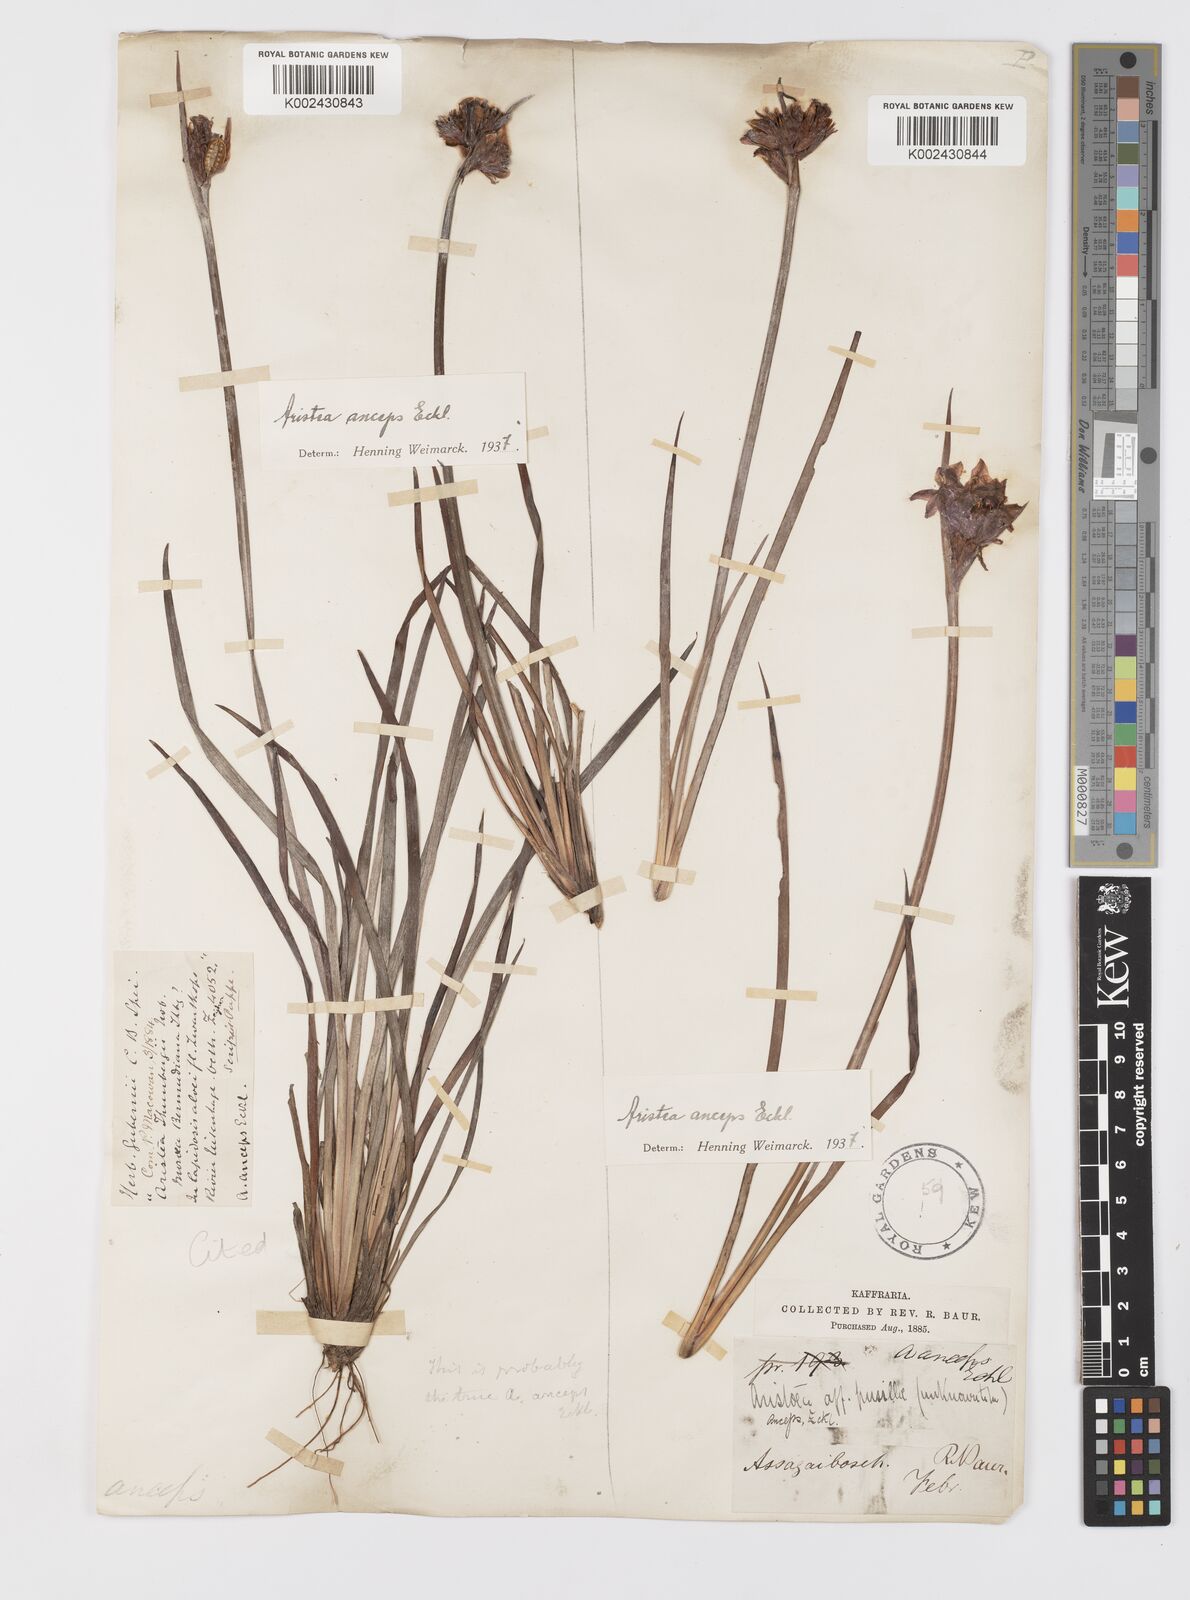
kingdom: Plantae
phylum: Tracheophyta
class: Liliopsida
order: Asparagales
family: Iridaceae
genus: Aristea
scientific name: Aristea anceps
